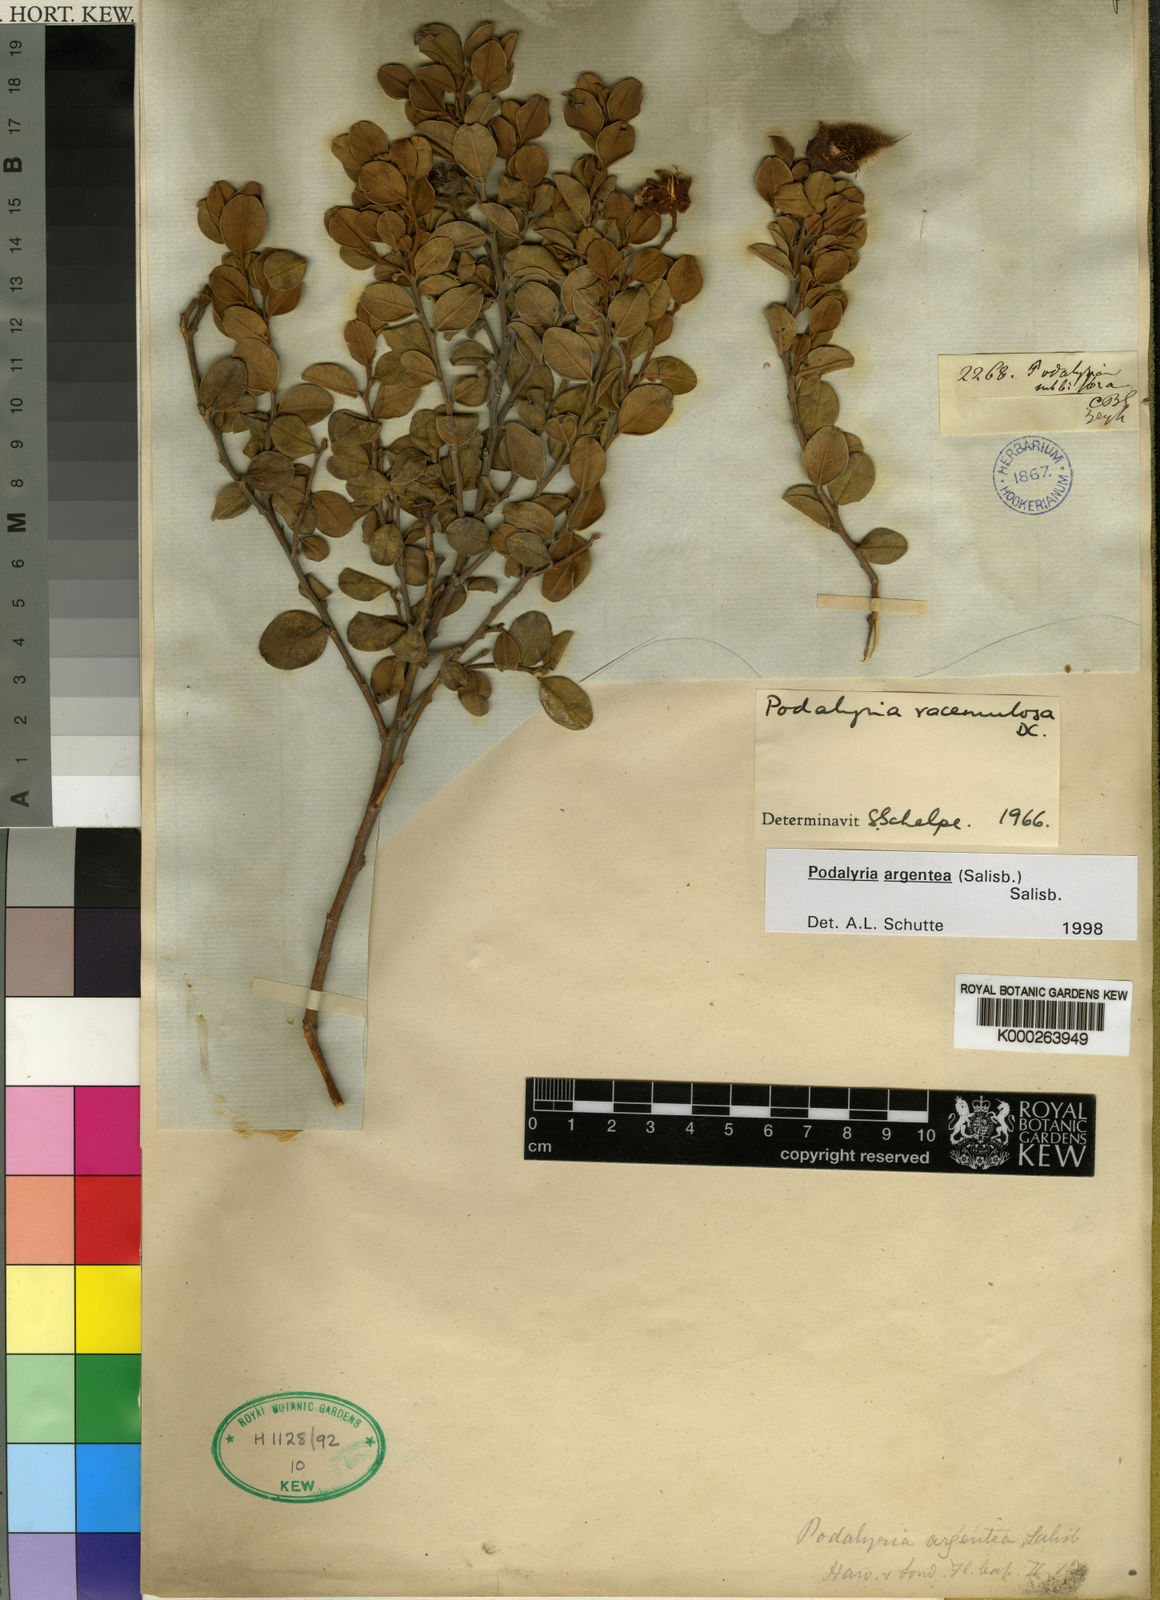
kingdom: Plantae
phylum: Tracheophyta
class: Magnoliopsida
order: Fabales
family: Fabaceae
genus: Podalyria
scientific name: Podalyria racemulosa
